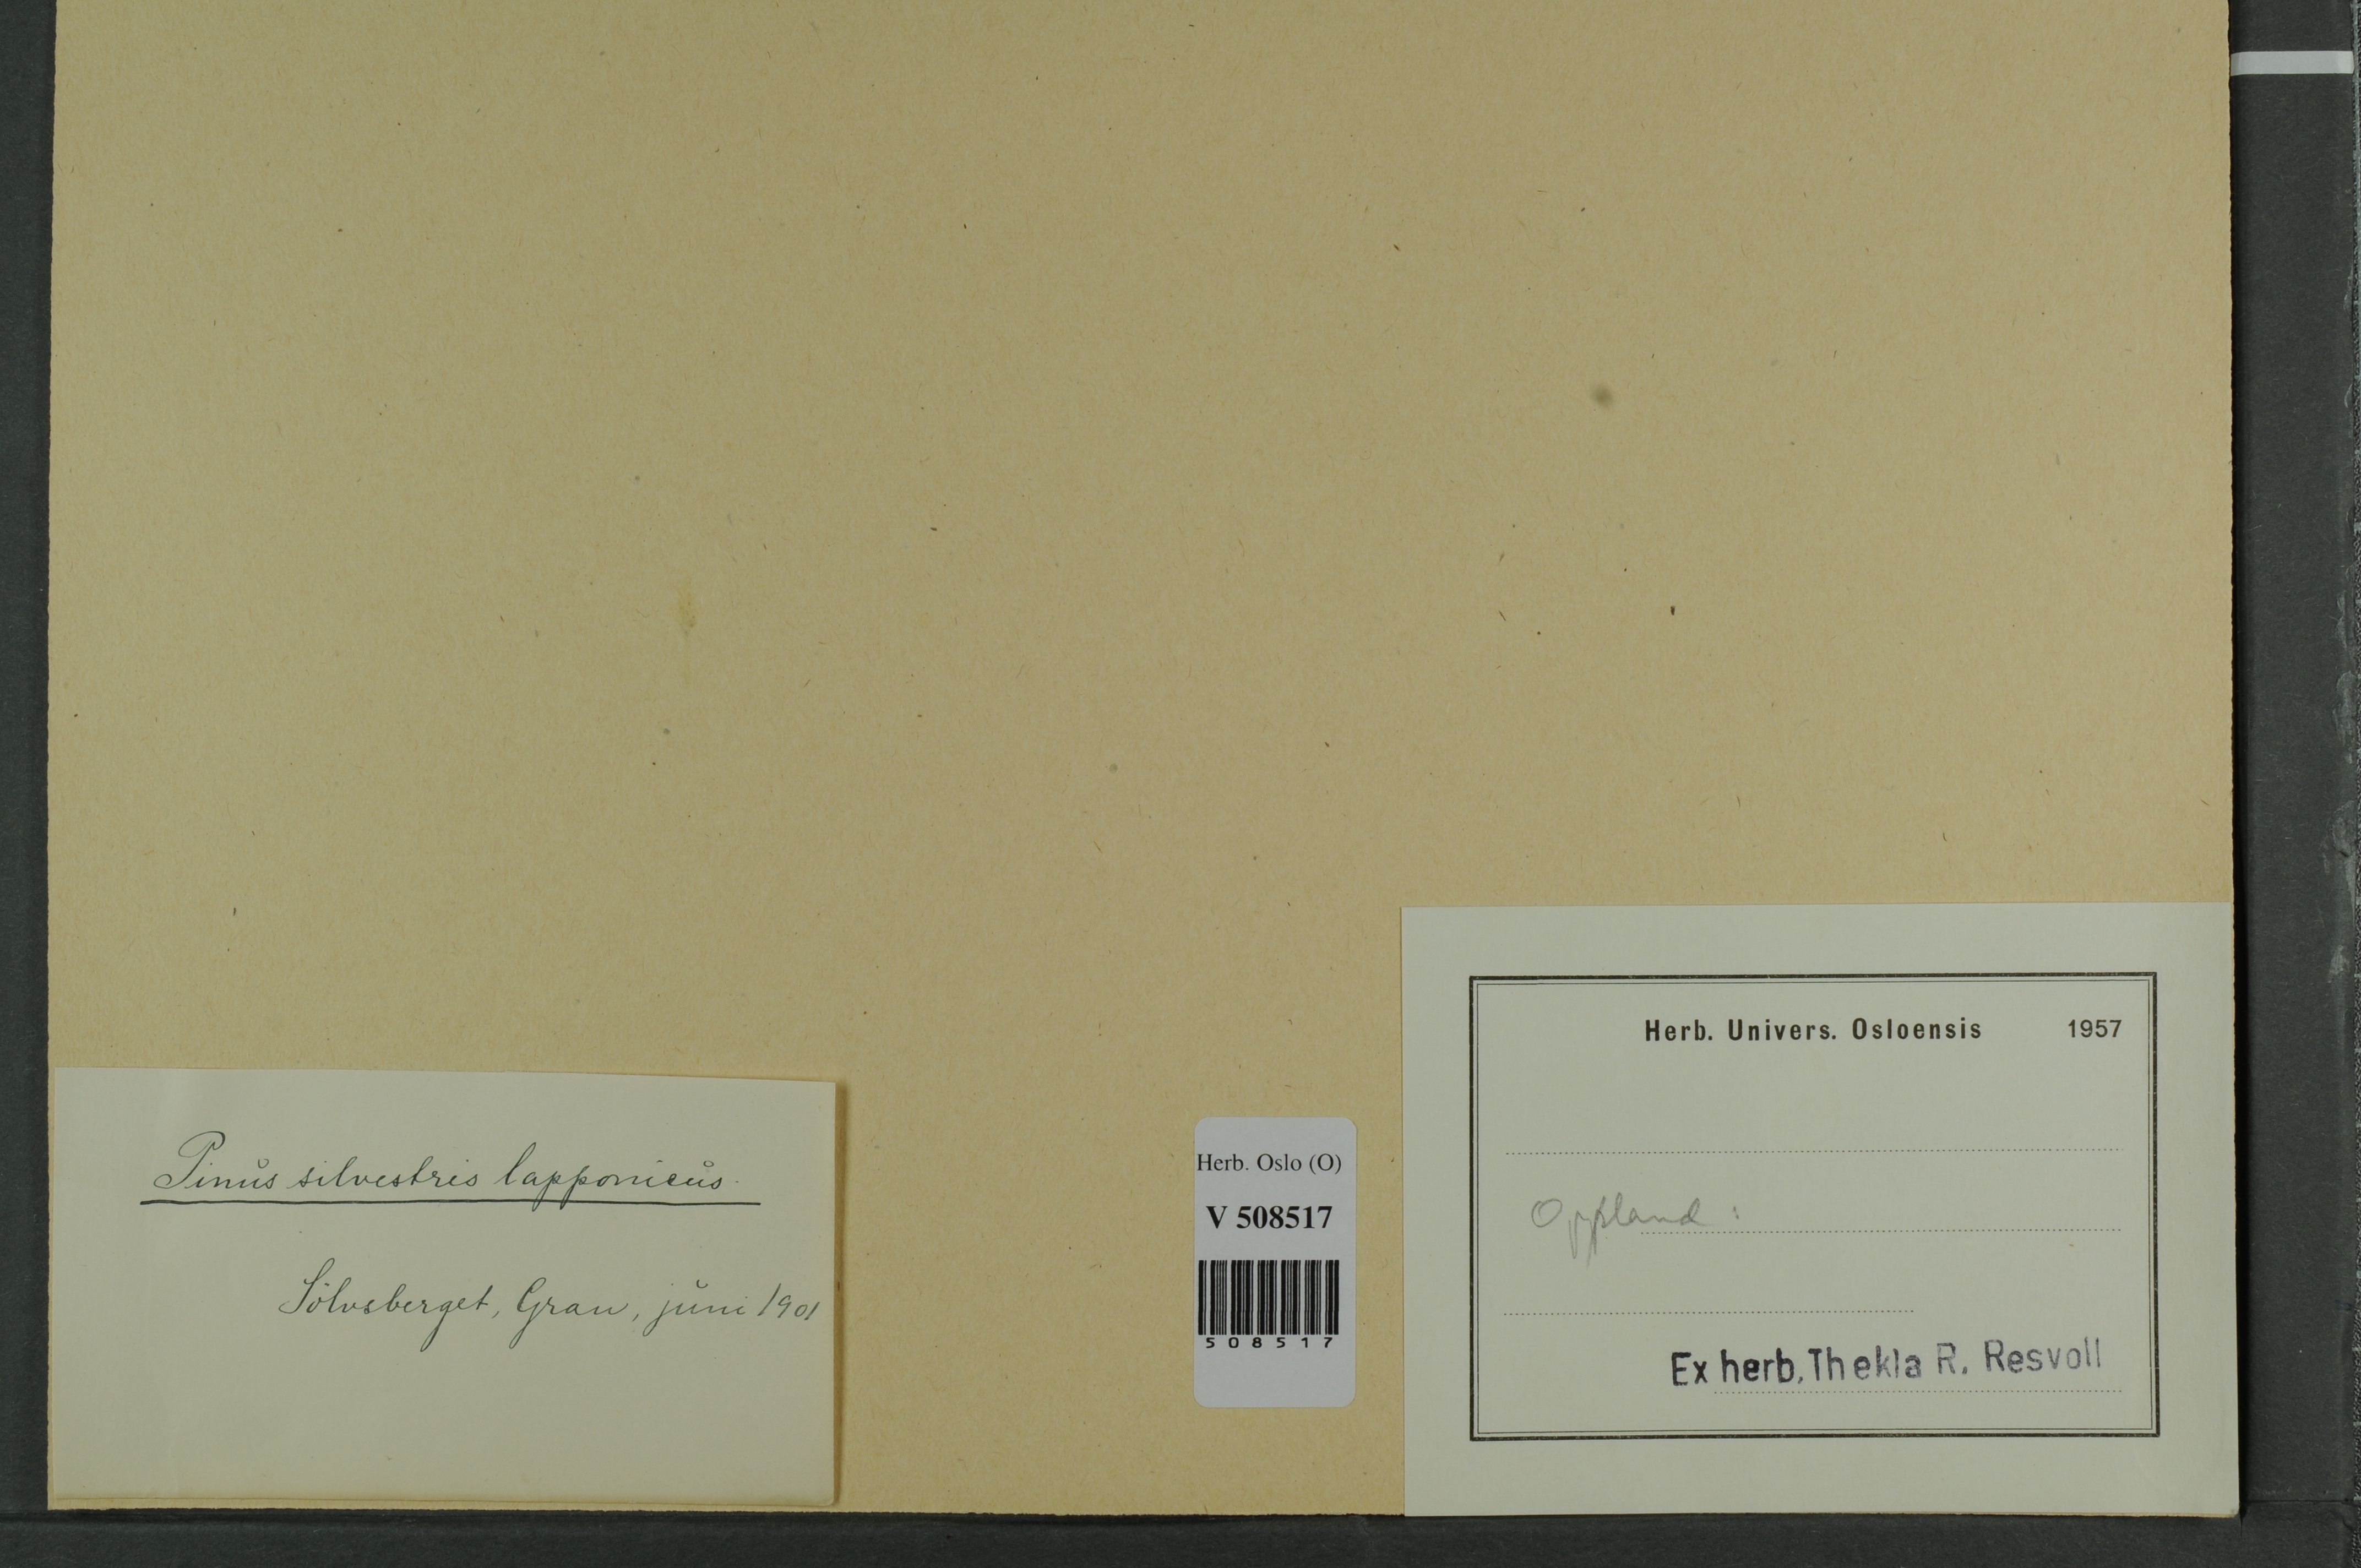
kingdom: Plantae
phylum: Tracheophyta
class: Pinopsida
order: Pinales
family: Pinaceae
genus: Pinus
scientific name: Pinus sylvestris
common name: Scots pine
